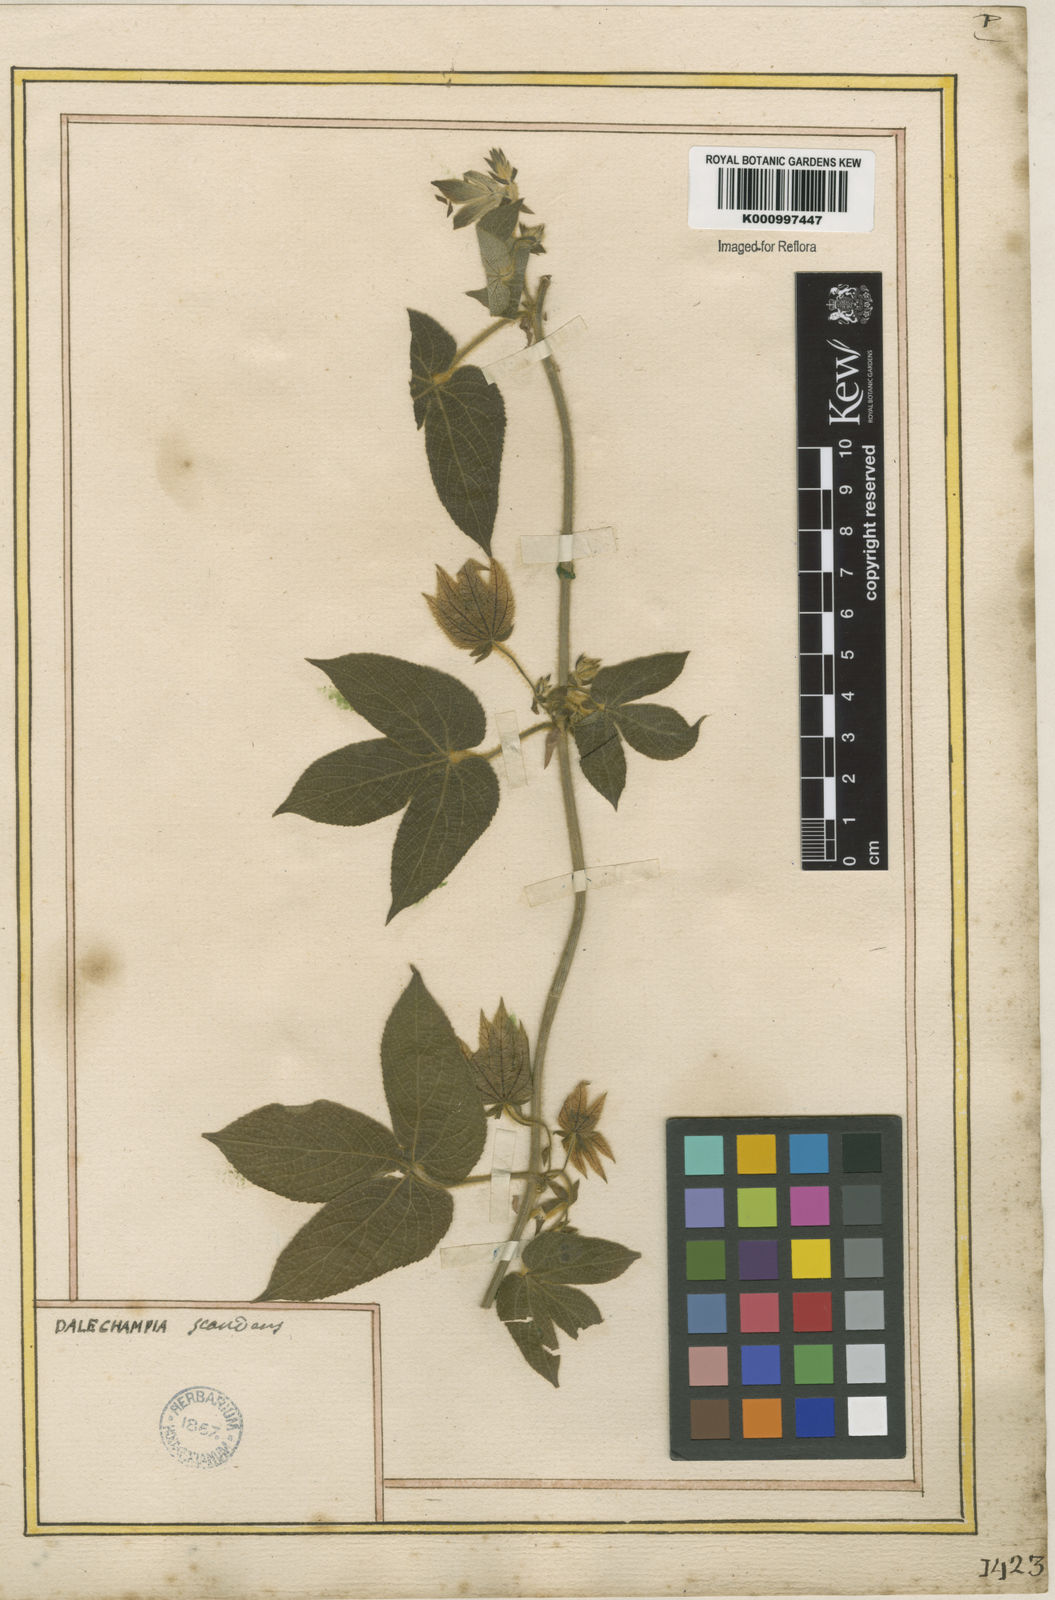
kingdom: Plantae
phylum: Tracheophyta
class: Magnoliopsida
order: Malpighiales
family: Euphorbiaceae
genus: Dalechampia
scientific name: Dalechampia scandens
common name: Spurgecreeper
